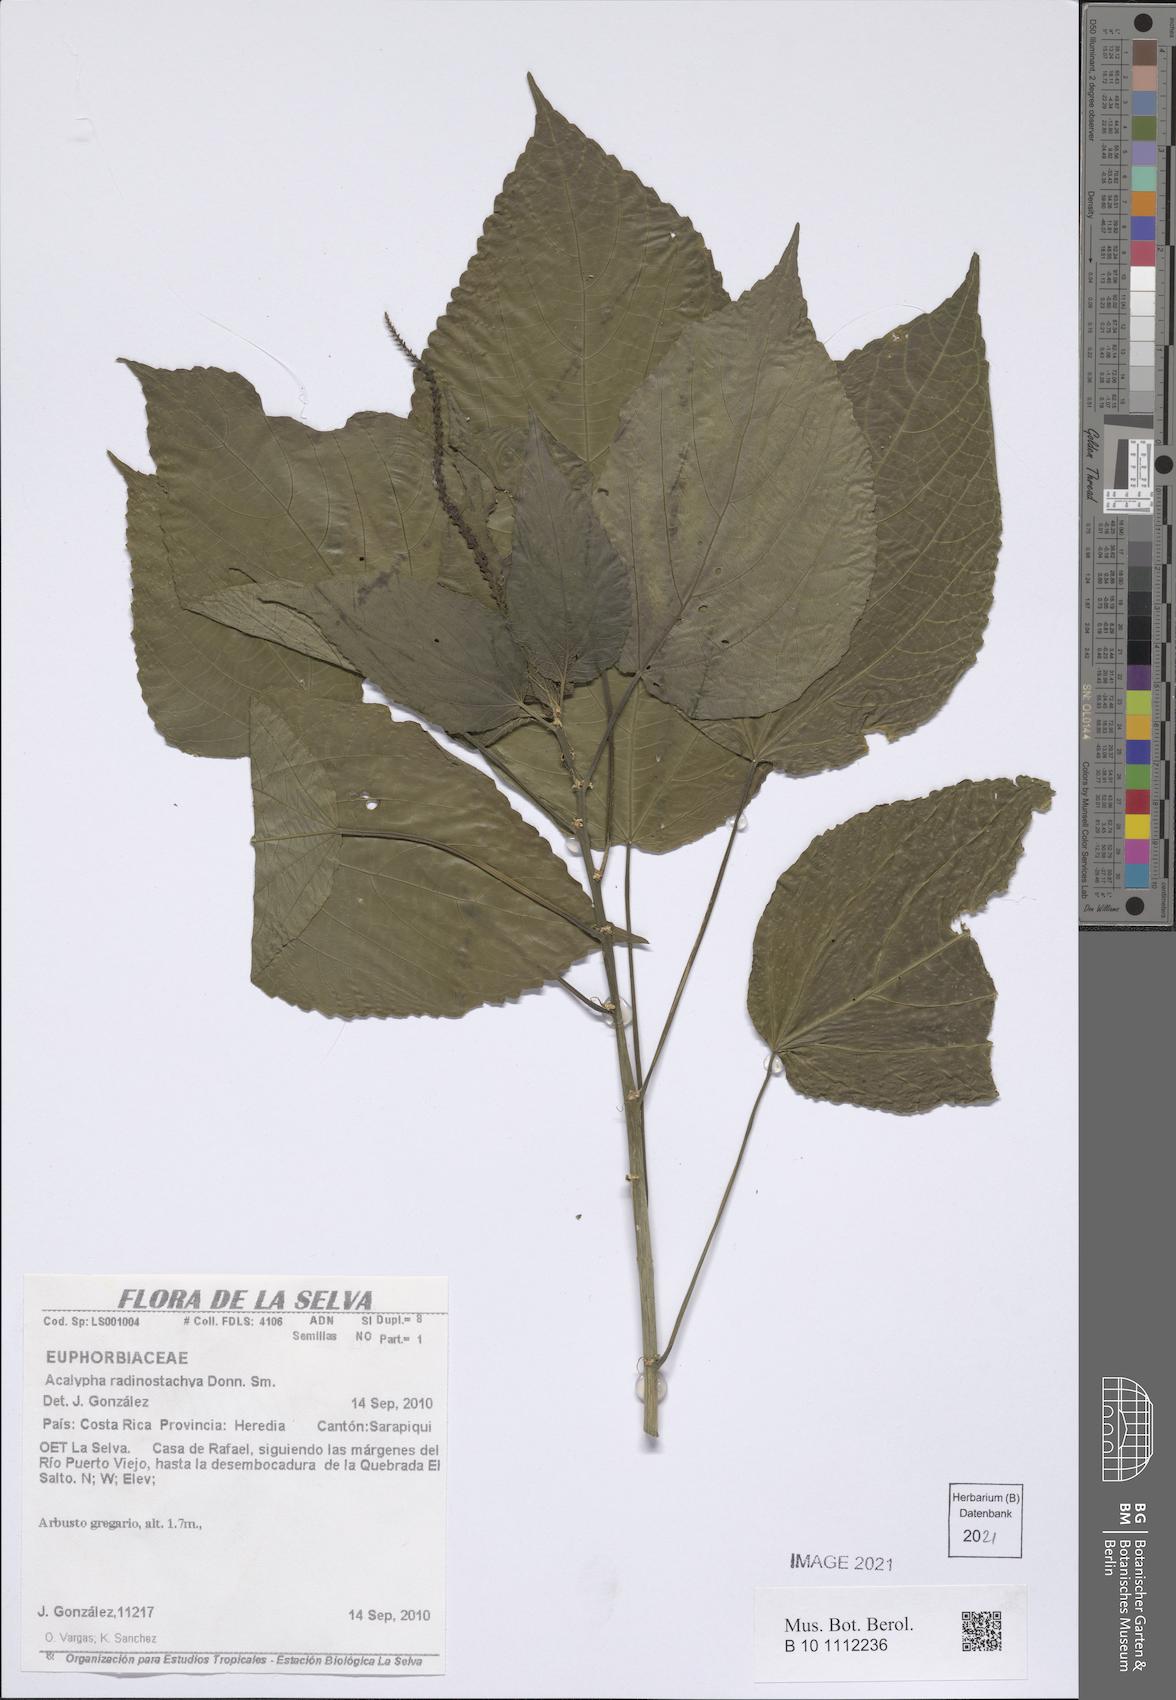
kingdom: Plantae
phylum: Tracheophyta
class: Magnoliopsida
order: Malpighiales
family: Euphorbiaceae
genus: Acalypha
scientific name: Acalypha radinostachya
